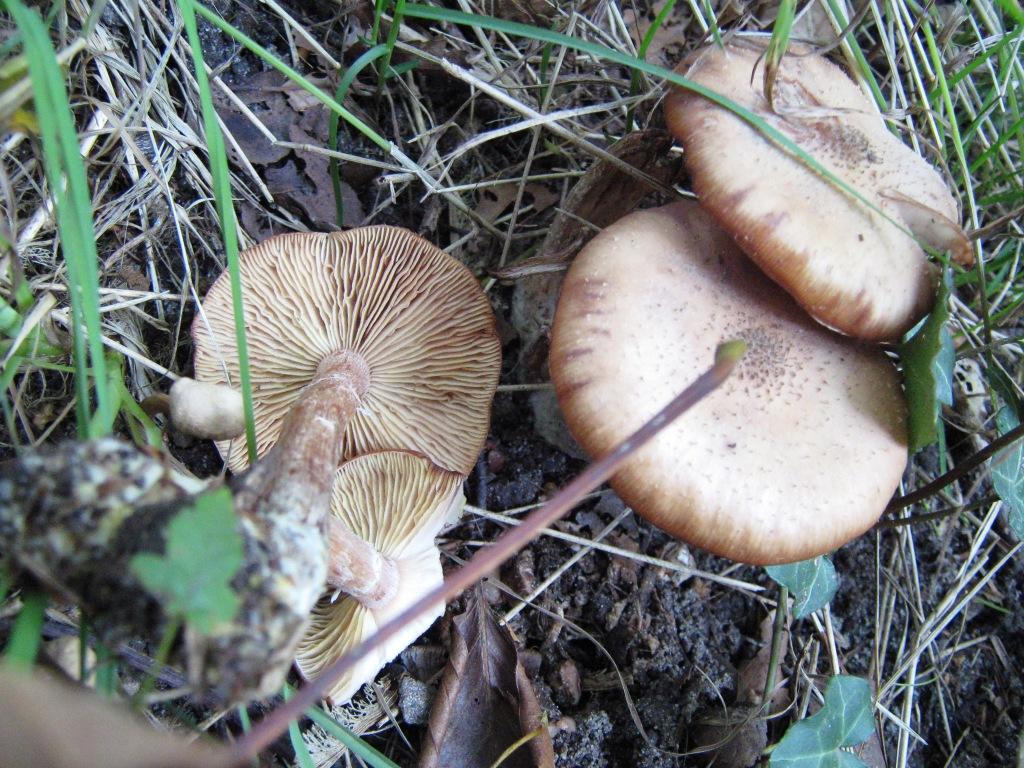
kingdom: Fungi
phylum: Basidiomycota
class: Agaricomycetes
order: Agaricales
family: Physalacriaceae
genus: Armillaria
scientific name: Armillaria lutea
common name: køllestokket honningsvamp
